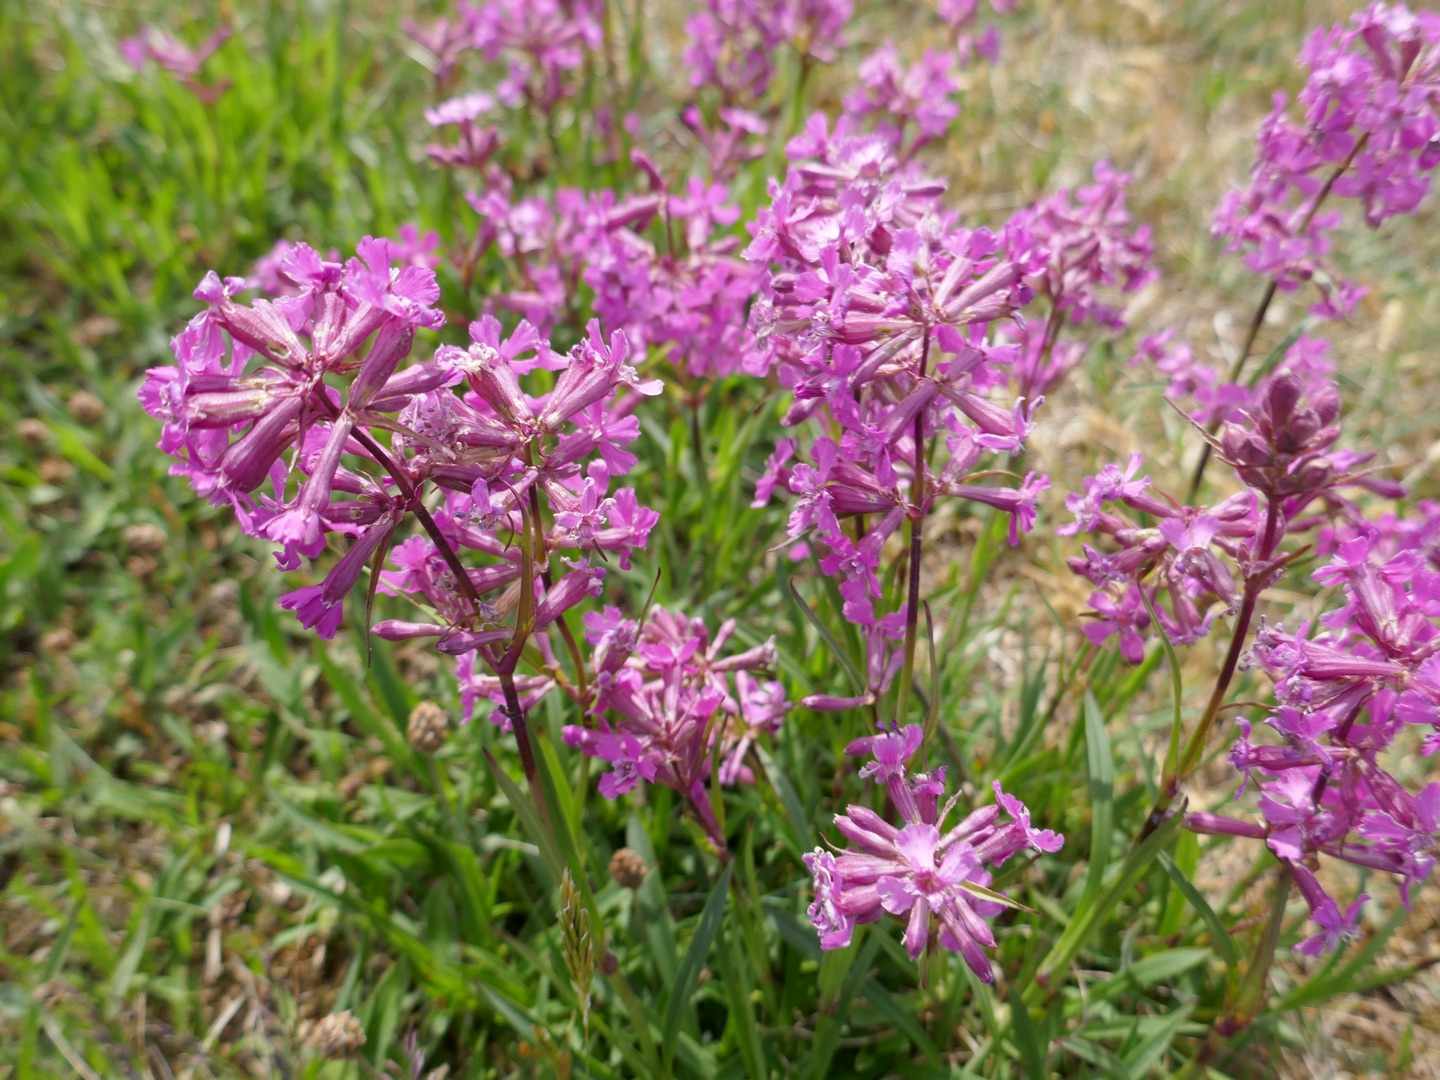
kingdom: Plantae
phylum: Tracheophyta
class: Magnoliopsida
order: Caryophyllales
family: Caryophyllaceae
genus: Viscaria
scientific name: Viscaria vulgaris
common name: Tjærenellike
